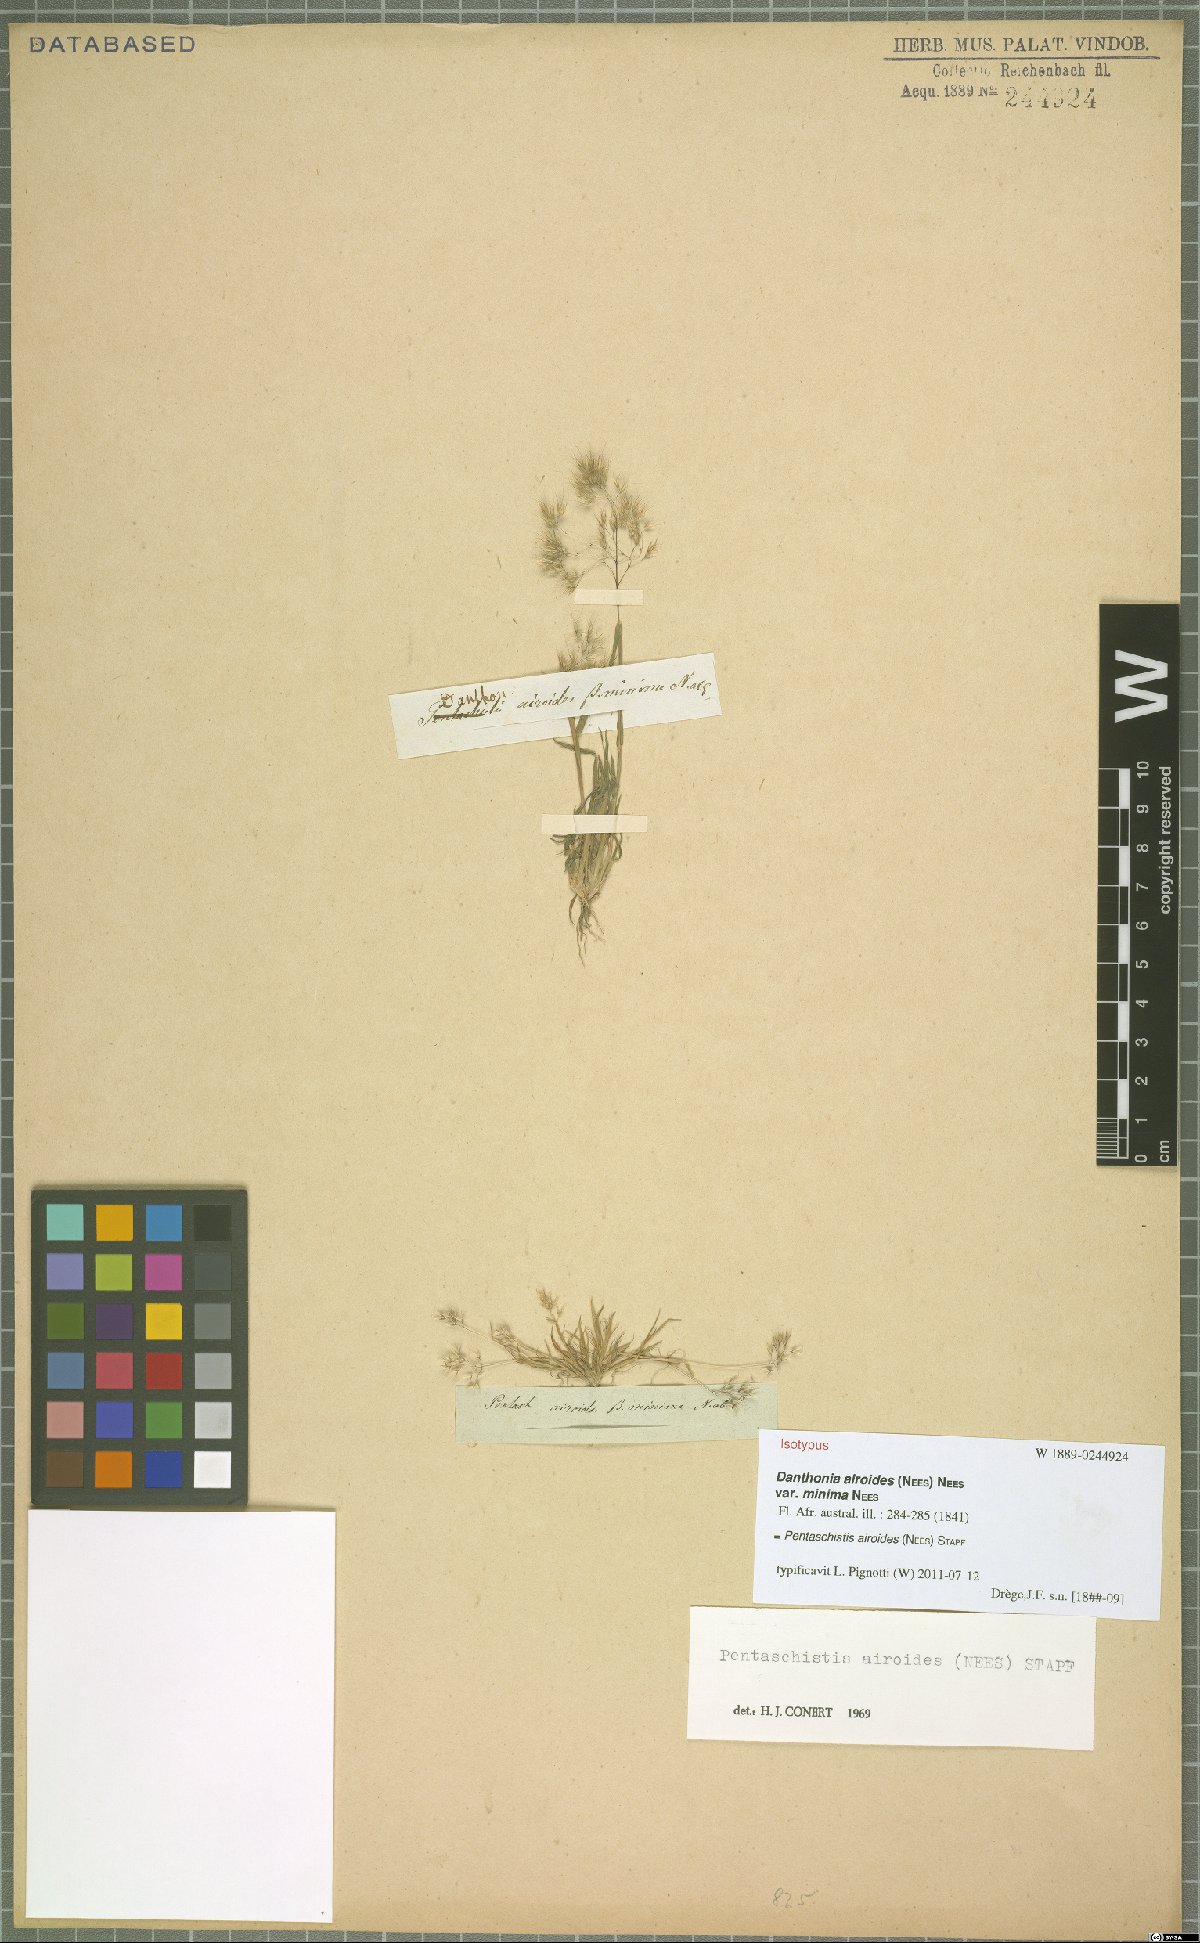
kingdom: Plantae
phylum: Tracheophyta
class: Liliopsida
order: Poales
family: Poaceae
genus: Pentameris
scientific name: Pentameris airoides
